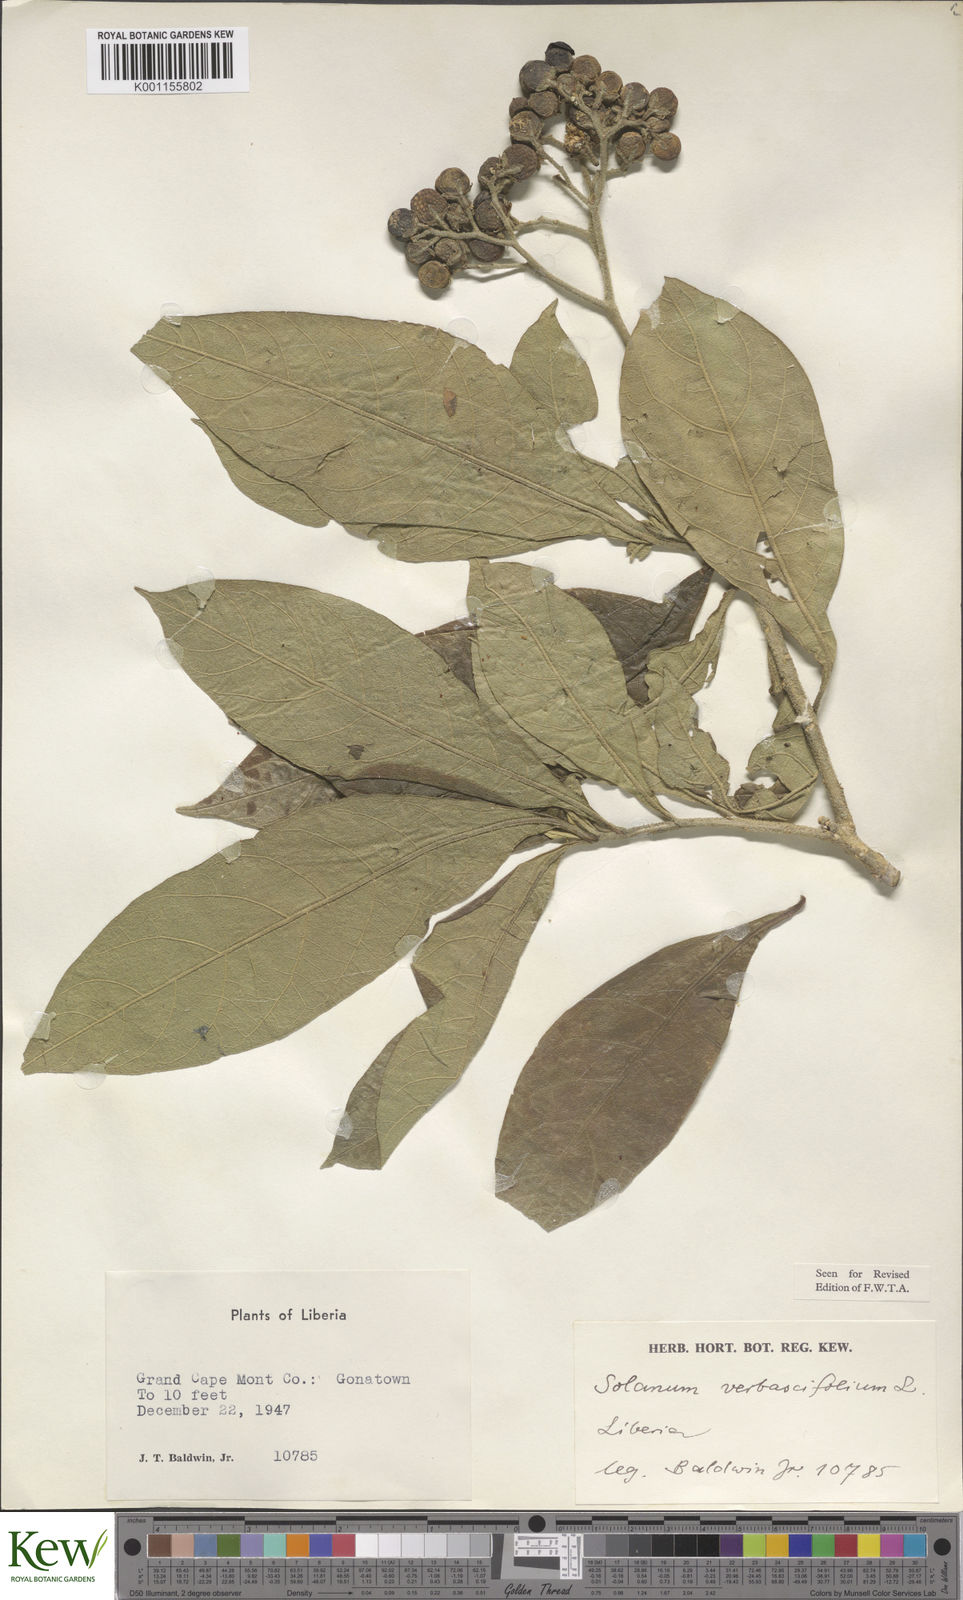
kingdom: Plantae
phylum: Tracheophyta
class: Magnoliopsida
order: Solanales
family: Solanaceae
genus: Solanum
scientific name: Solanum rugosum
